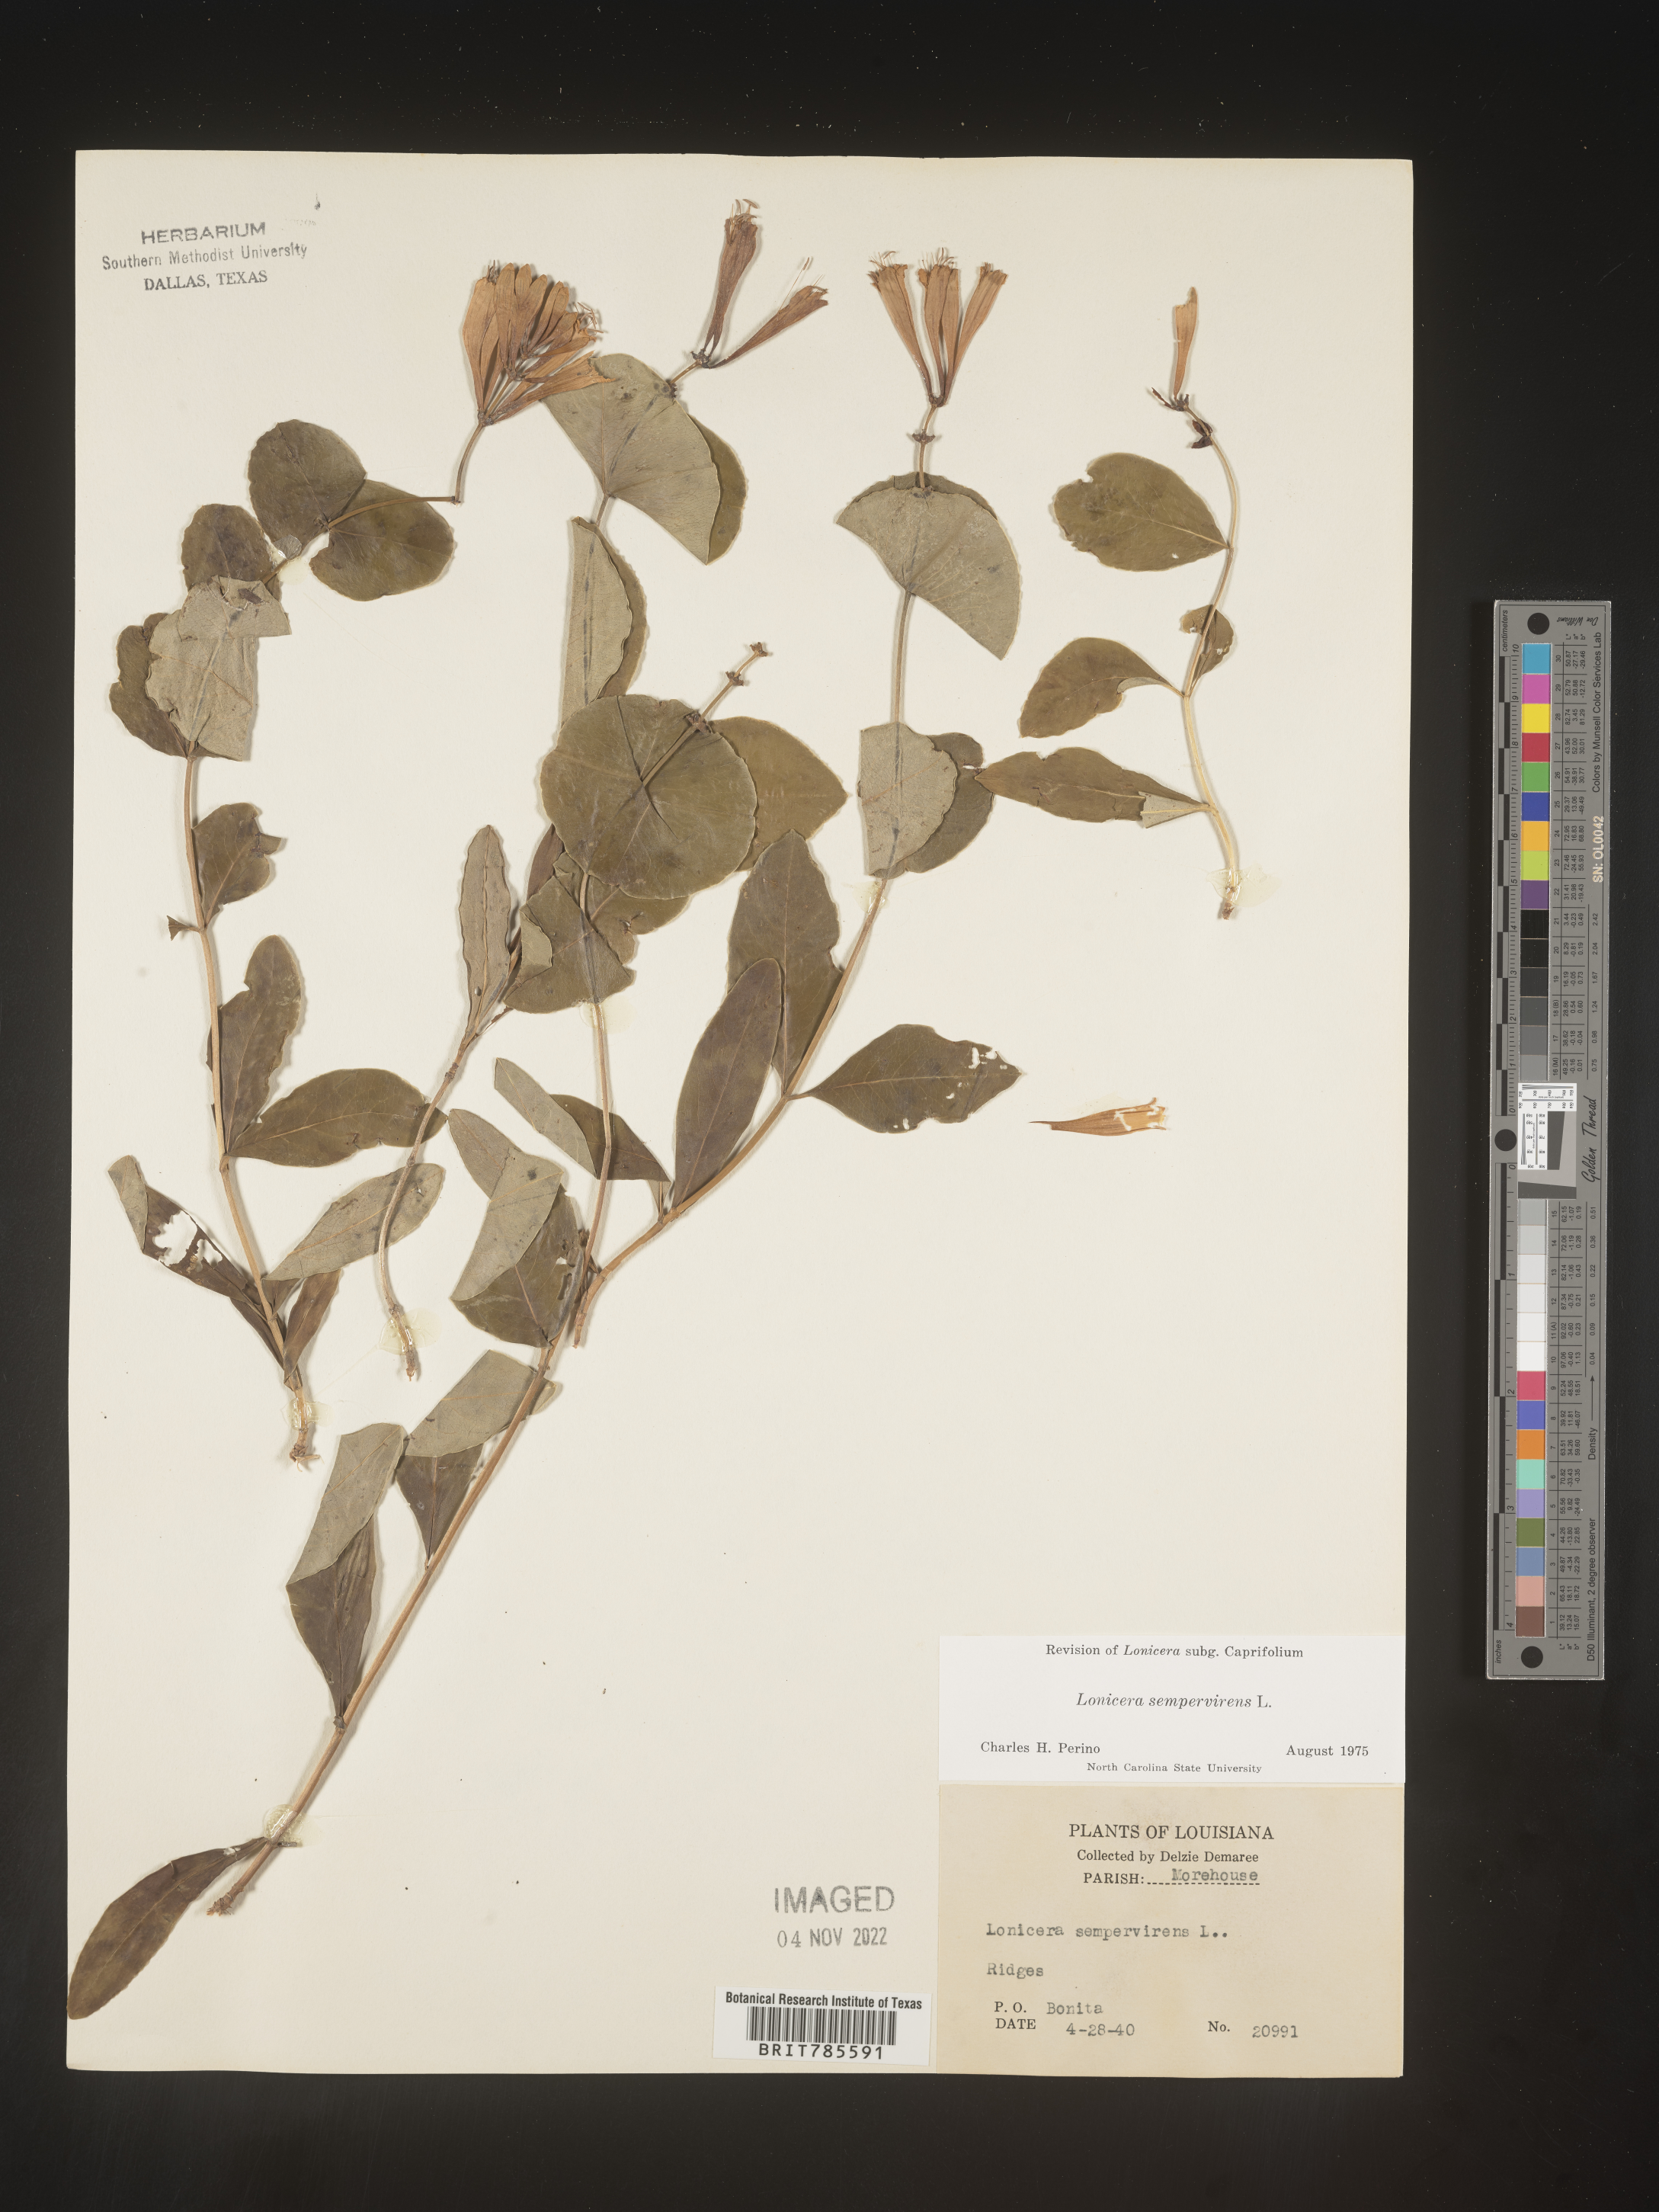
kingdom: Plantae
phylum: Tracheophyta
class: Magnoliopsida
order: Dipsacales
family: Caprifoliaceae
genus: Lonicera
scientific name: Lonicera sempervirens
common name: Coral honeysuckle
